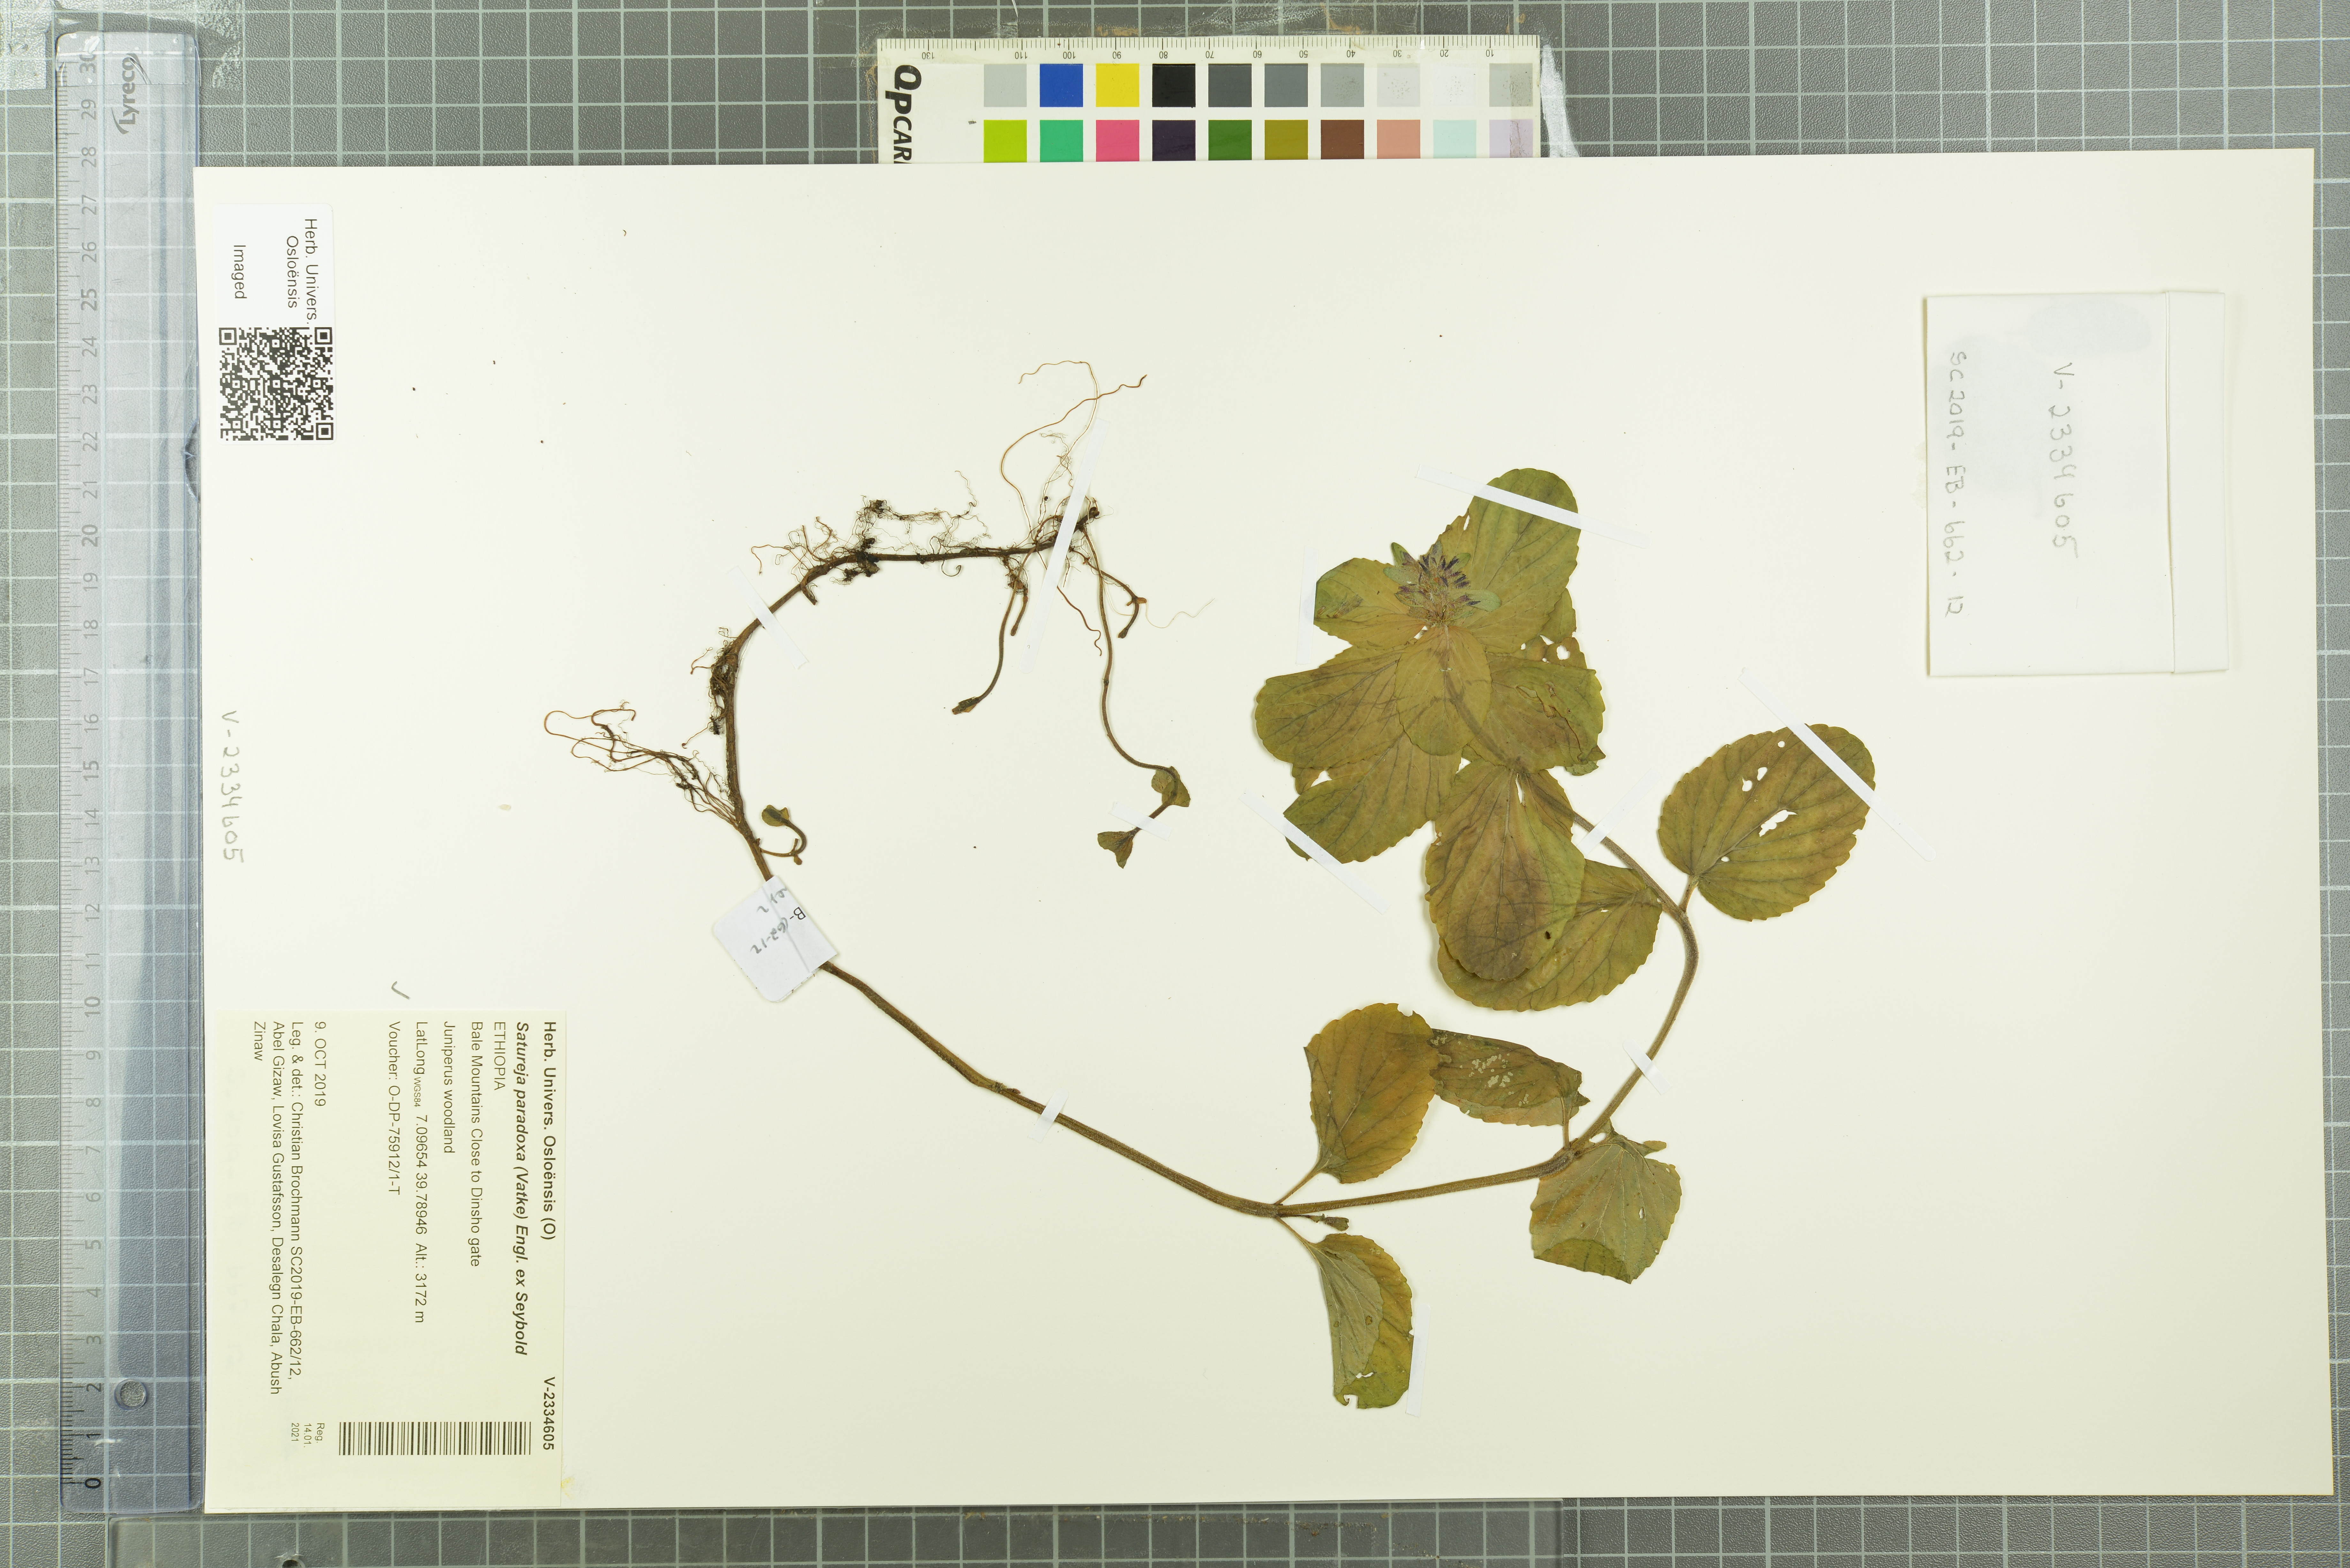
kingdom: Plantae
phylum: Tracheophyta
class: Magnoliopsida
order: Lamiales
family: Lamiaceae
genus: Clinopodium
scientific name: Clinopodium paradoxum
